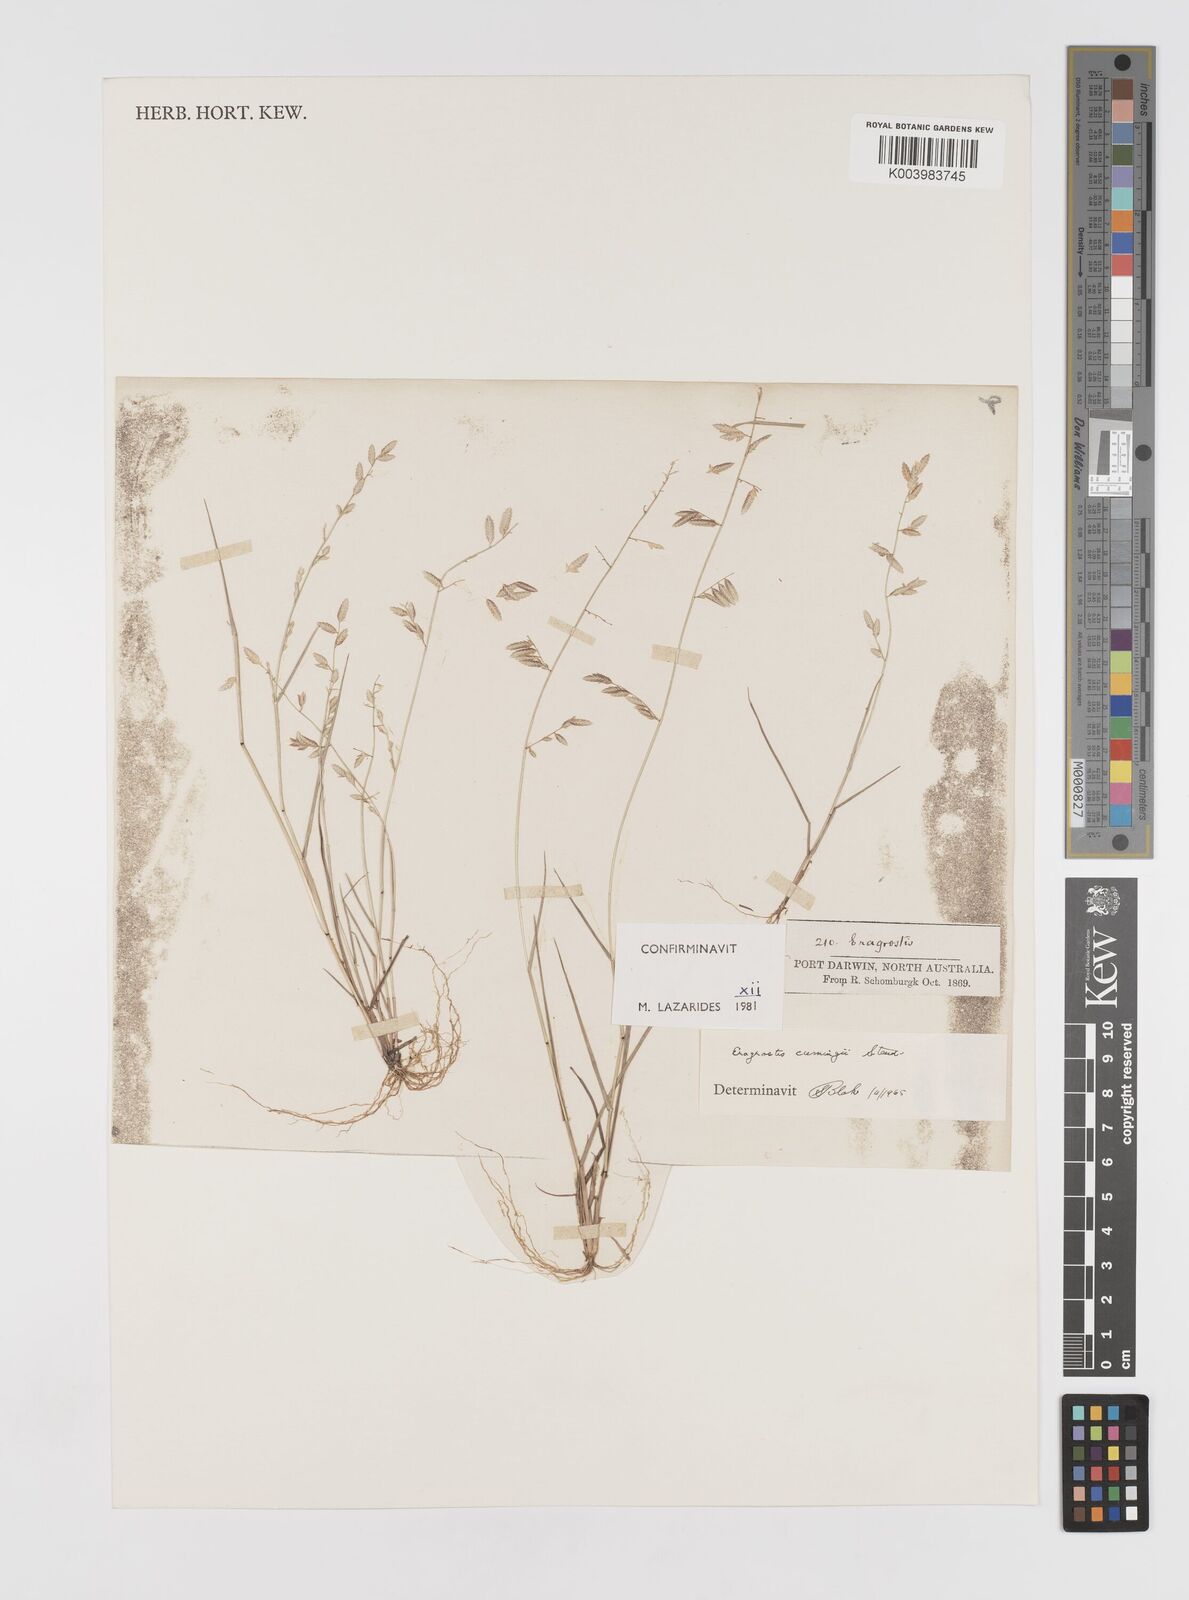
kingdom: Plantae
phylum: Tracheophyta
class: Liliopsida
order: Poales
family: Poaceae
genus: Eragrostis
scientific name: Eragrostis cumingii
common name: Cuming's lovegrass
